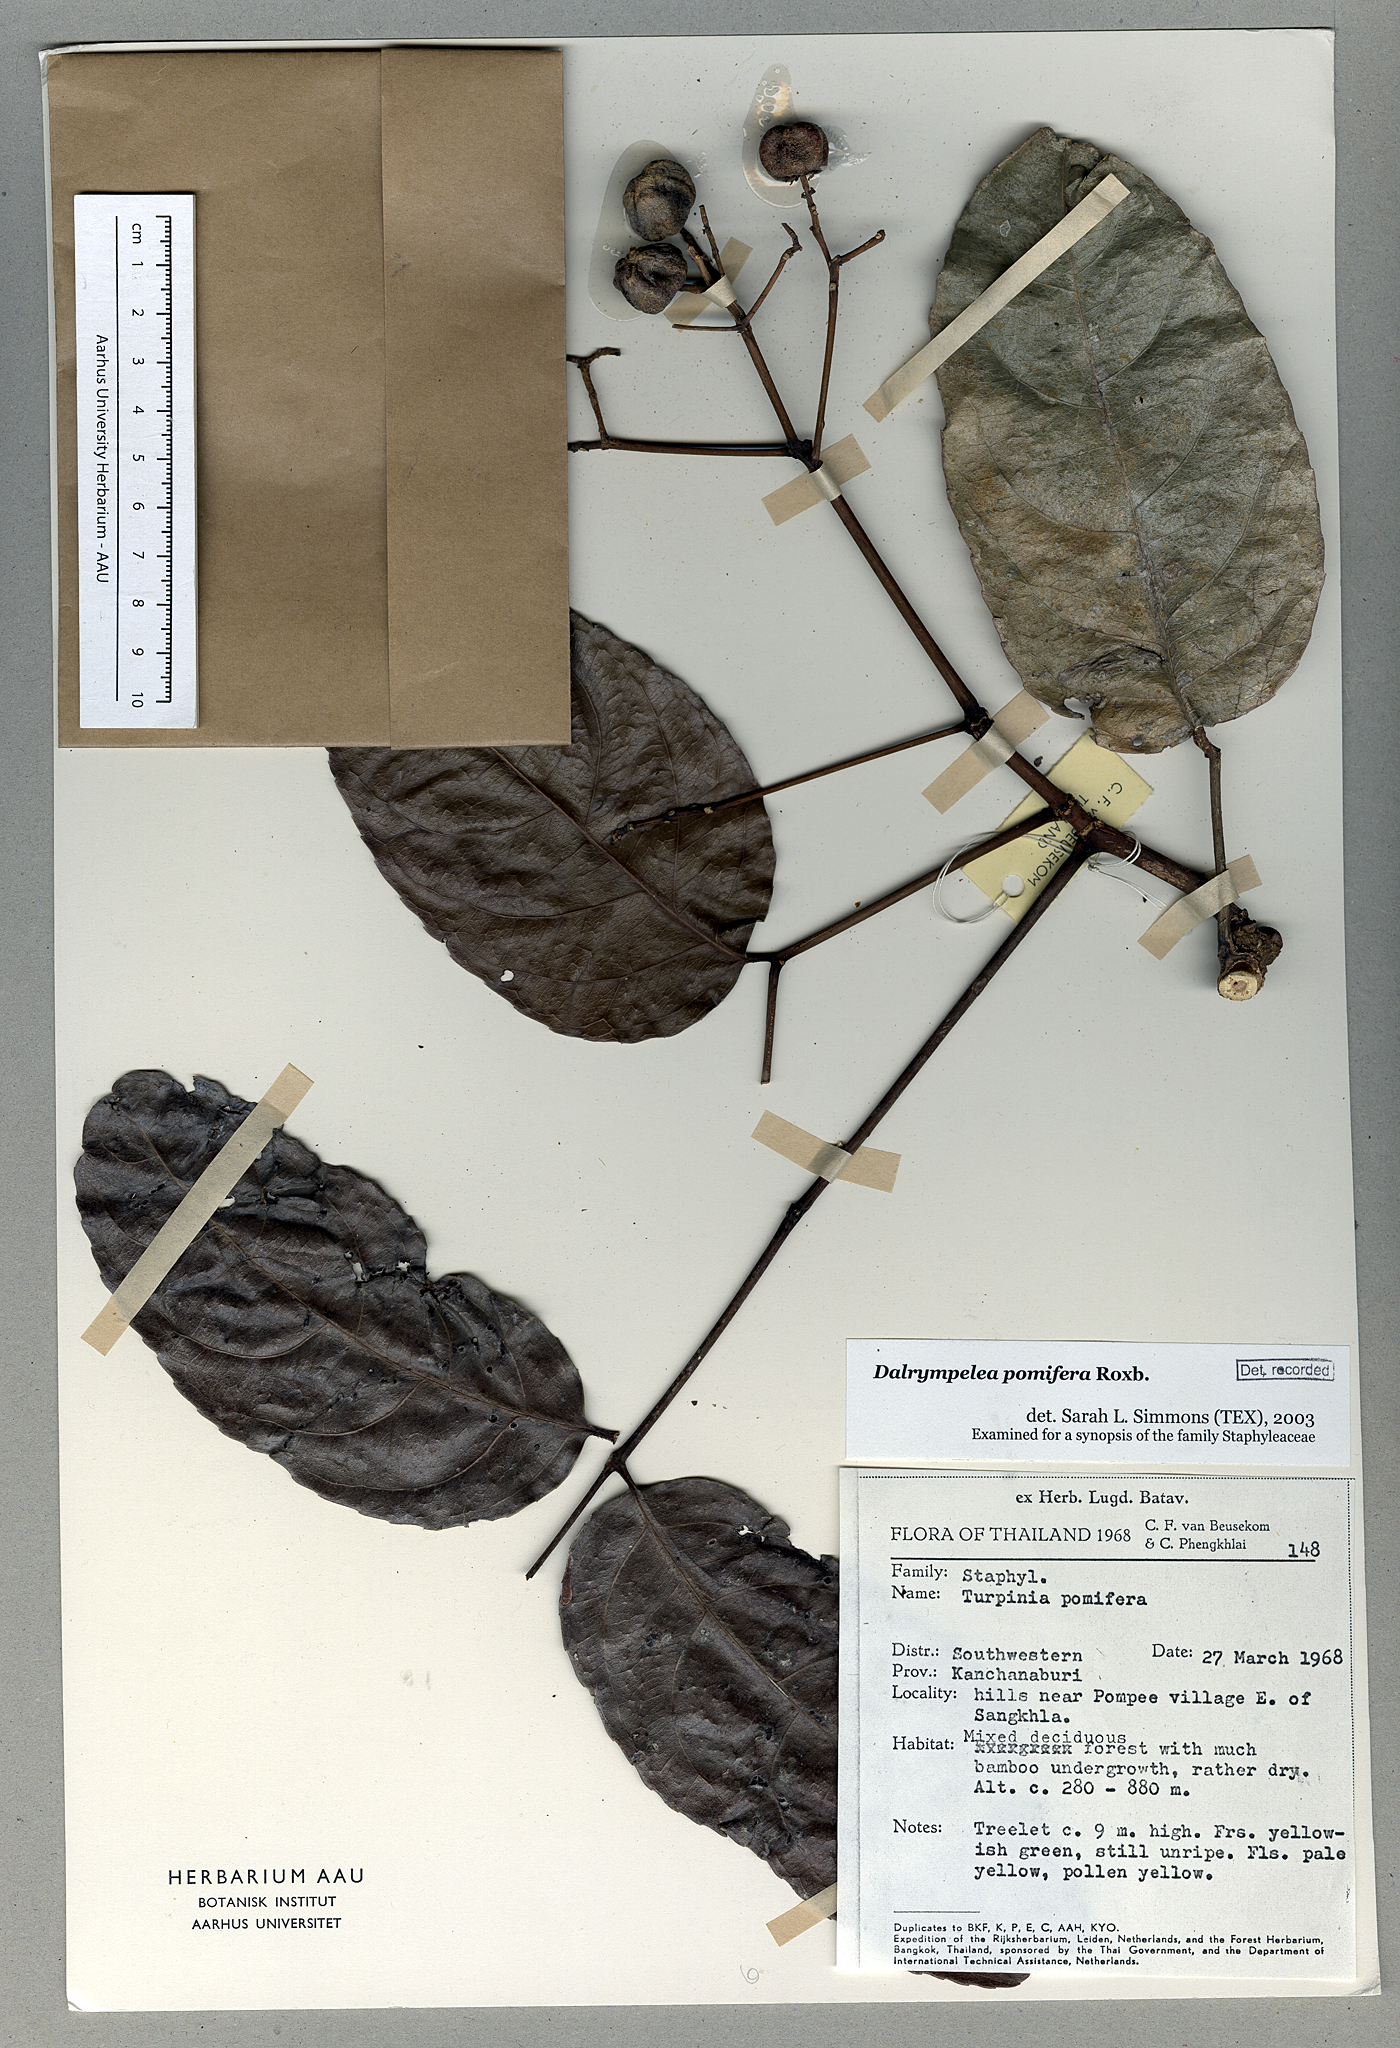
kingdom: Plantae
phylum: Tracheophyta
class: Magnoliopsida
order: Crossosomatales
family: Staphyleaceae
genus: Dalrympelea
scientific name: Dalrympelea pomifera
